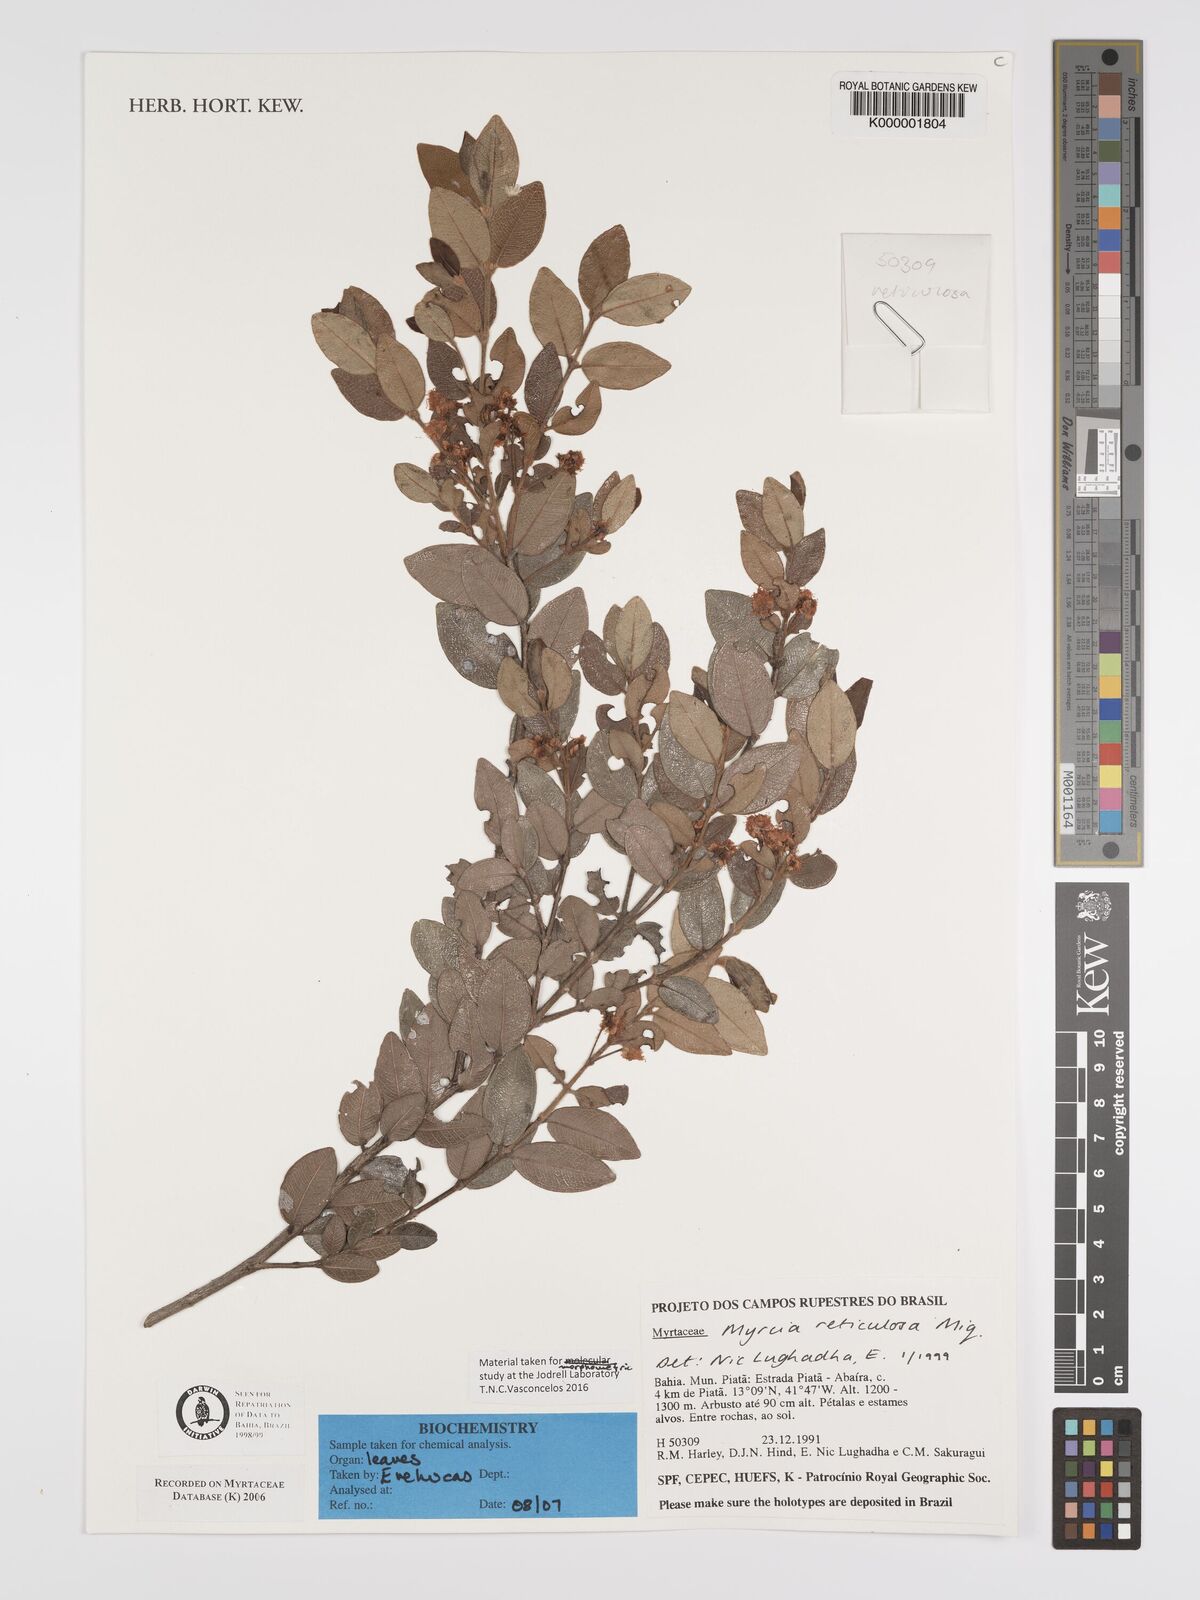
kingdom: Plantae
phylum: Tracheophyta
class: Magnoliopsida
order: Myrtales
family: Myrtaceae
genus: Myrcia
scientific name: Myrcia reticulosa
